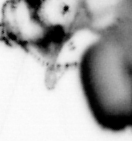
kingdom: Animalia
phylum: Annelida
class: Polychaeta
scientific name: Polychaeta
